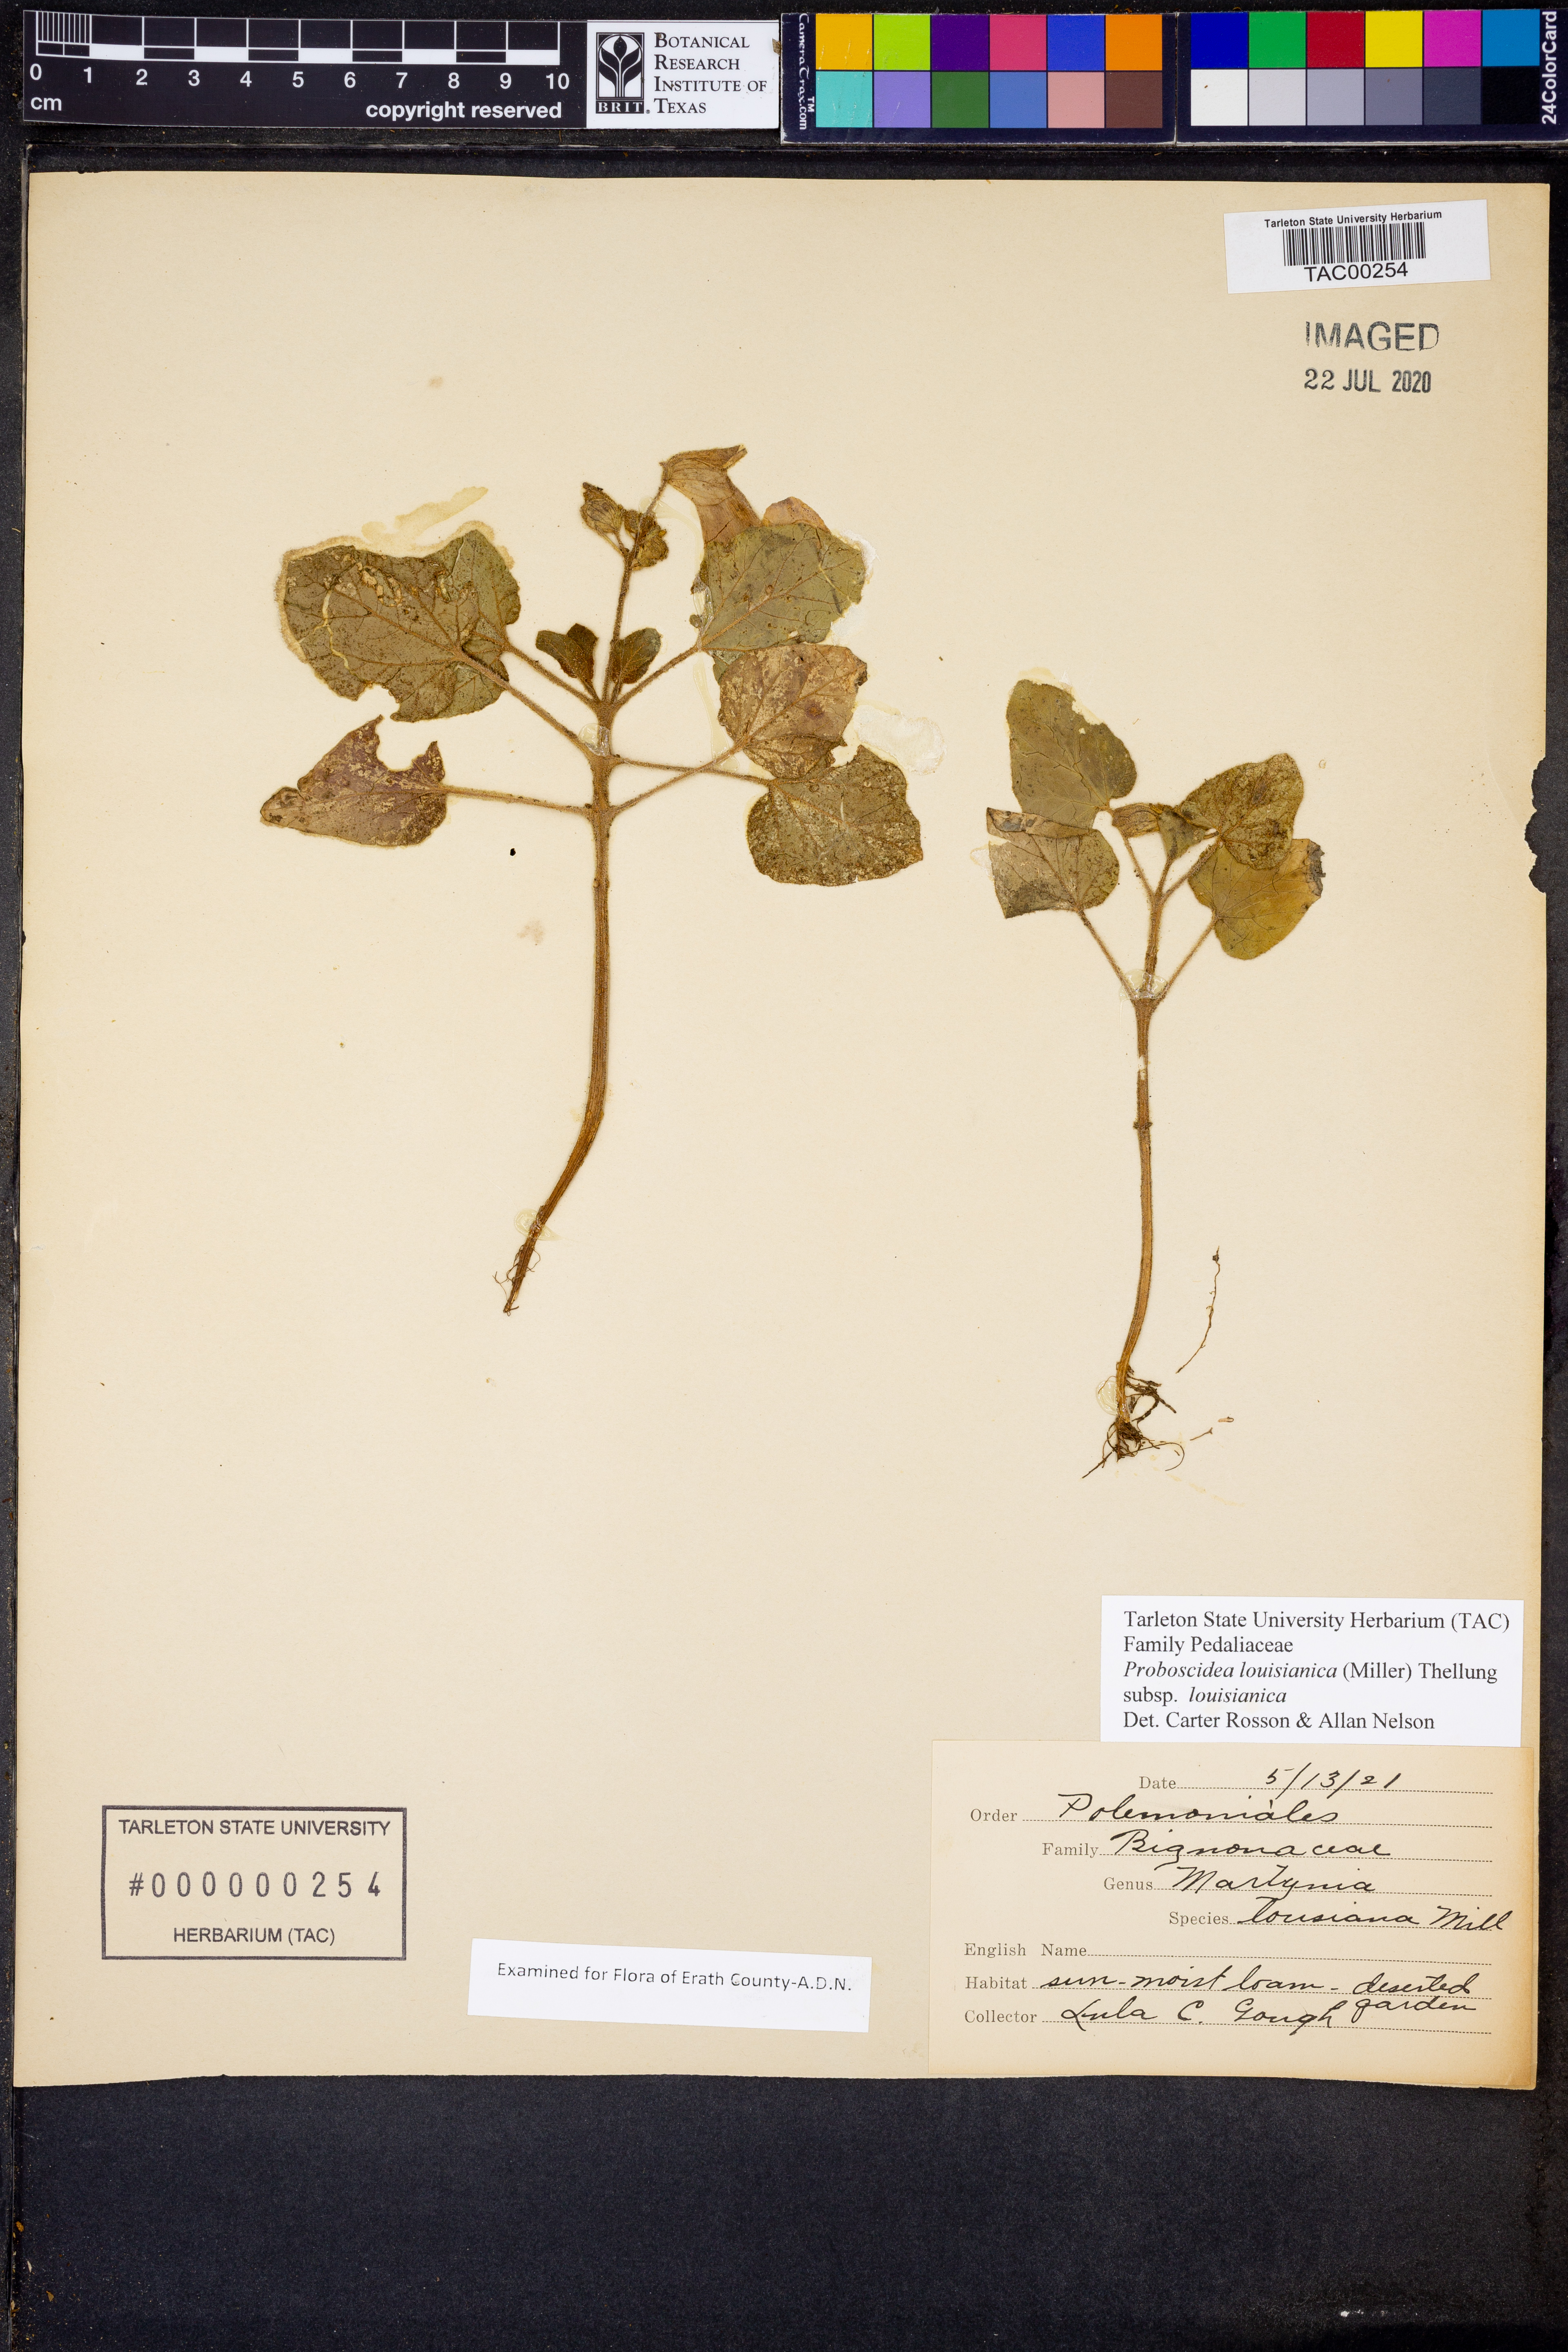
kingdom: Plantae
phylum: Tracheophyta
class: Magnoliopsida
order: Lamiales
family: Martyniaceae
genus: Proboscidea
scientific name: Proboscidea louisianica
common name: Elephant tusks
